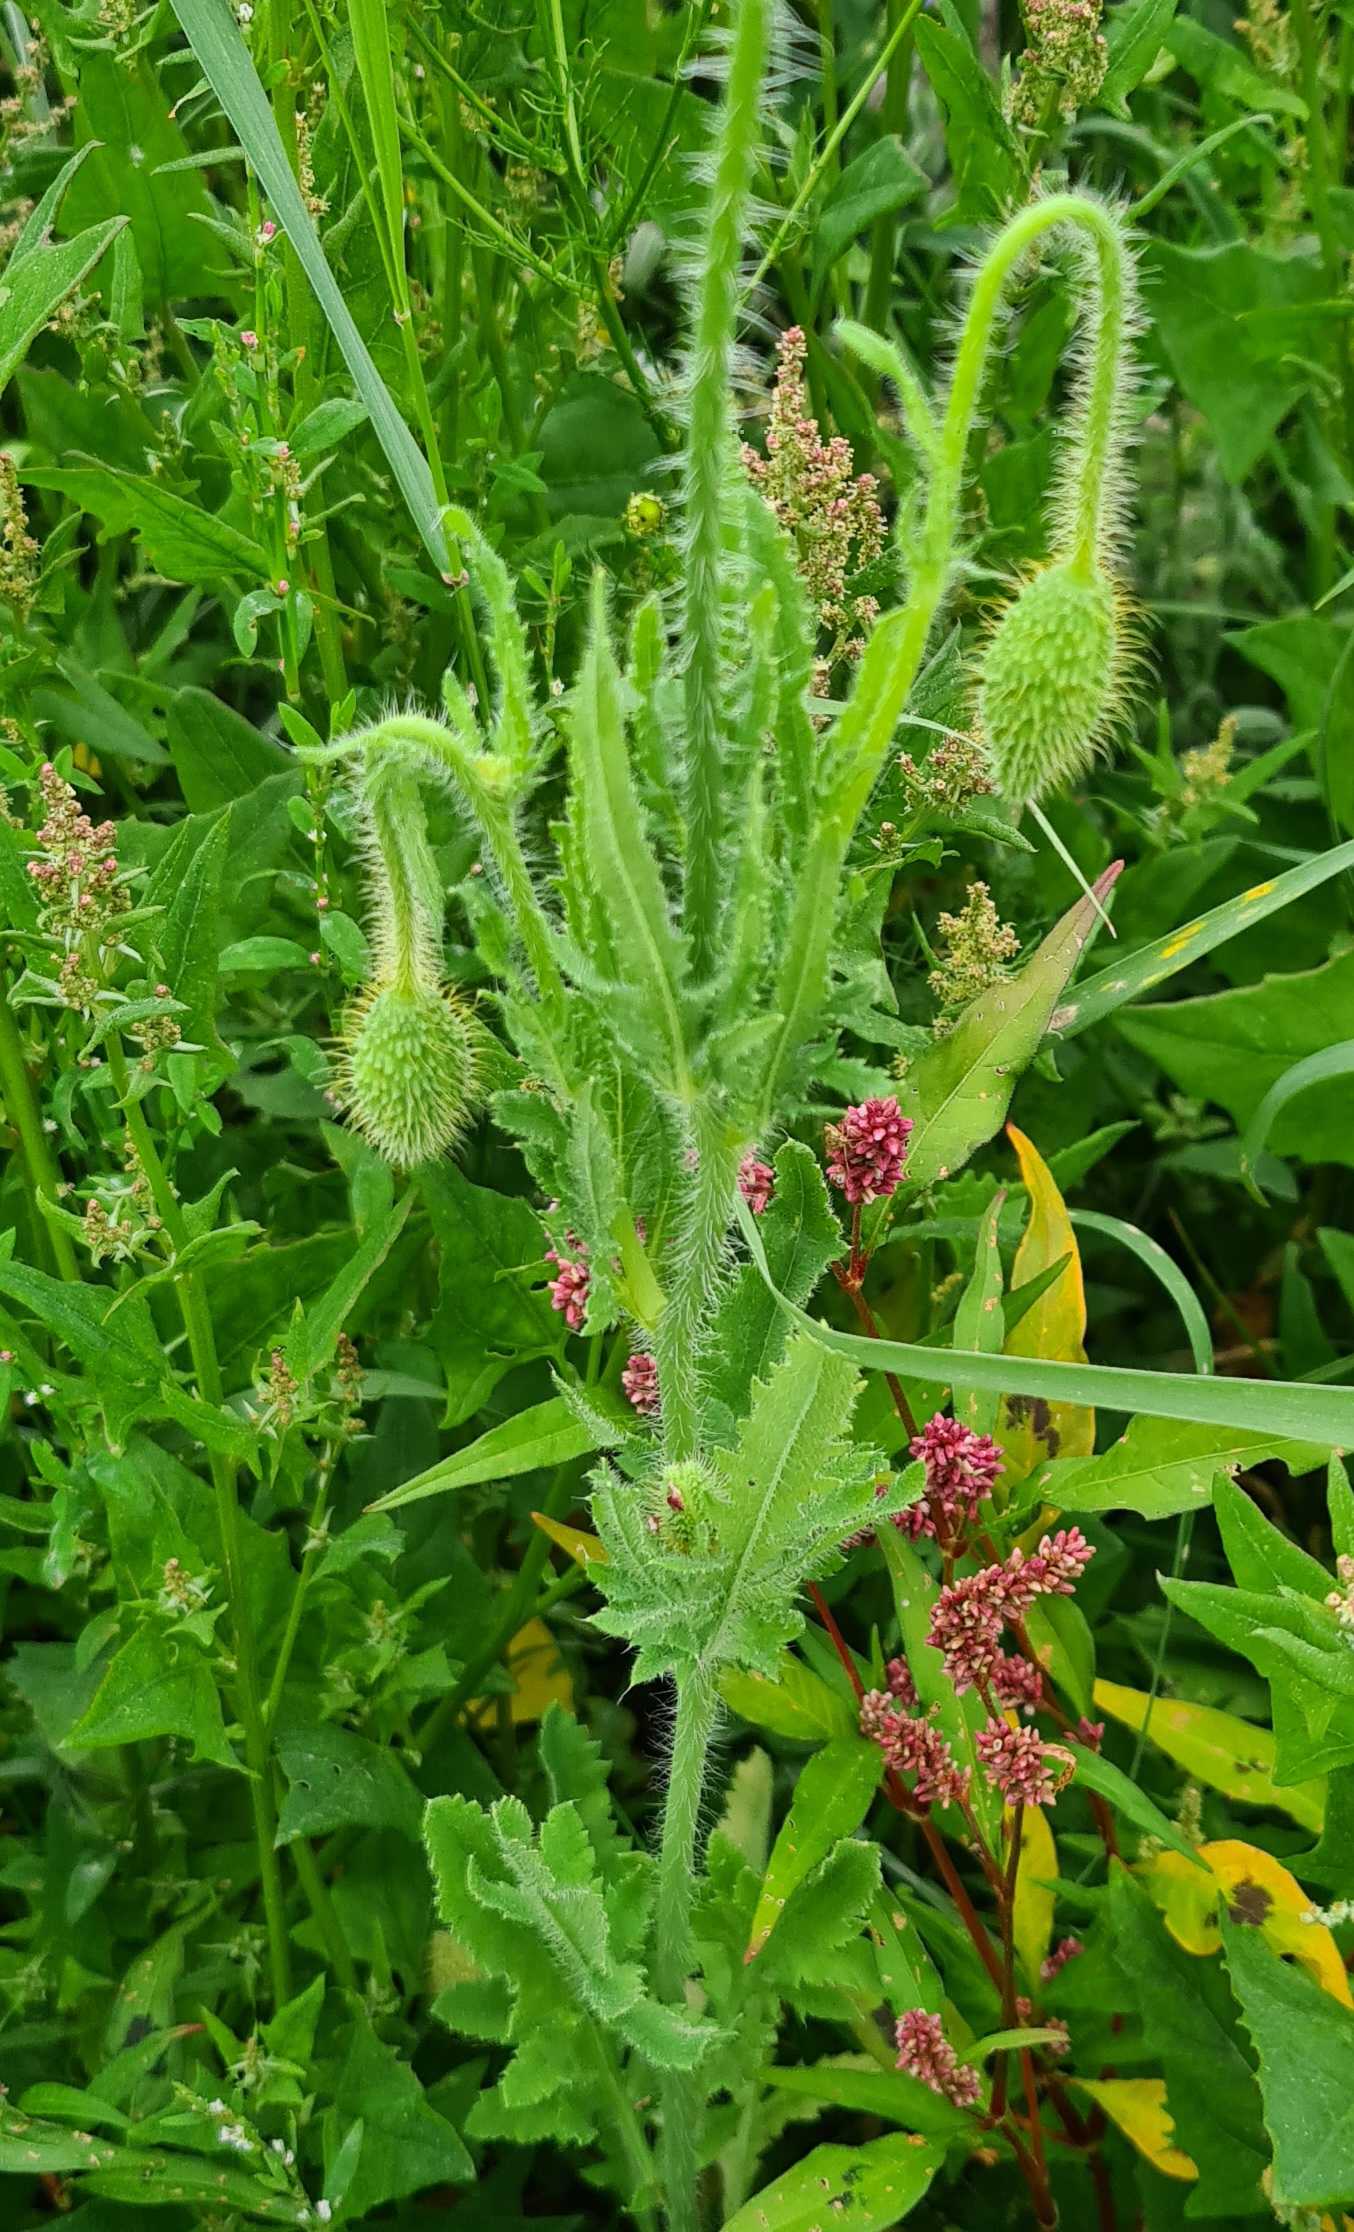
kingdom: Plantae
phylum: Tracheophyta
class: Magnoliopsida
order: Ranunculales
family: Papaveraceae
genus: Papaver
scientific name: Papaver rhoeas
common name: Korn-valmue
